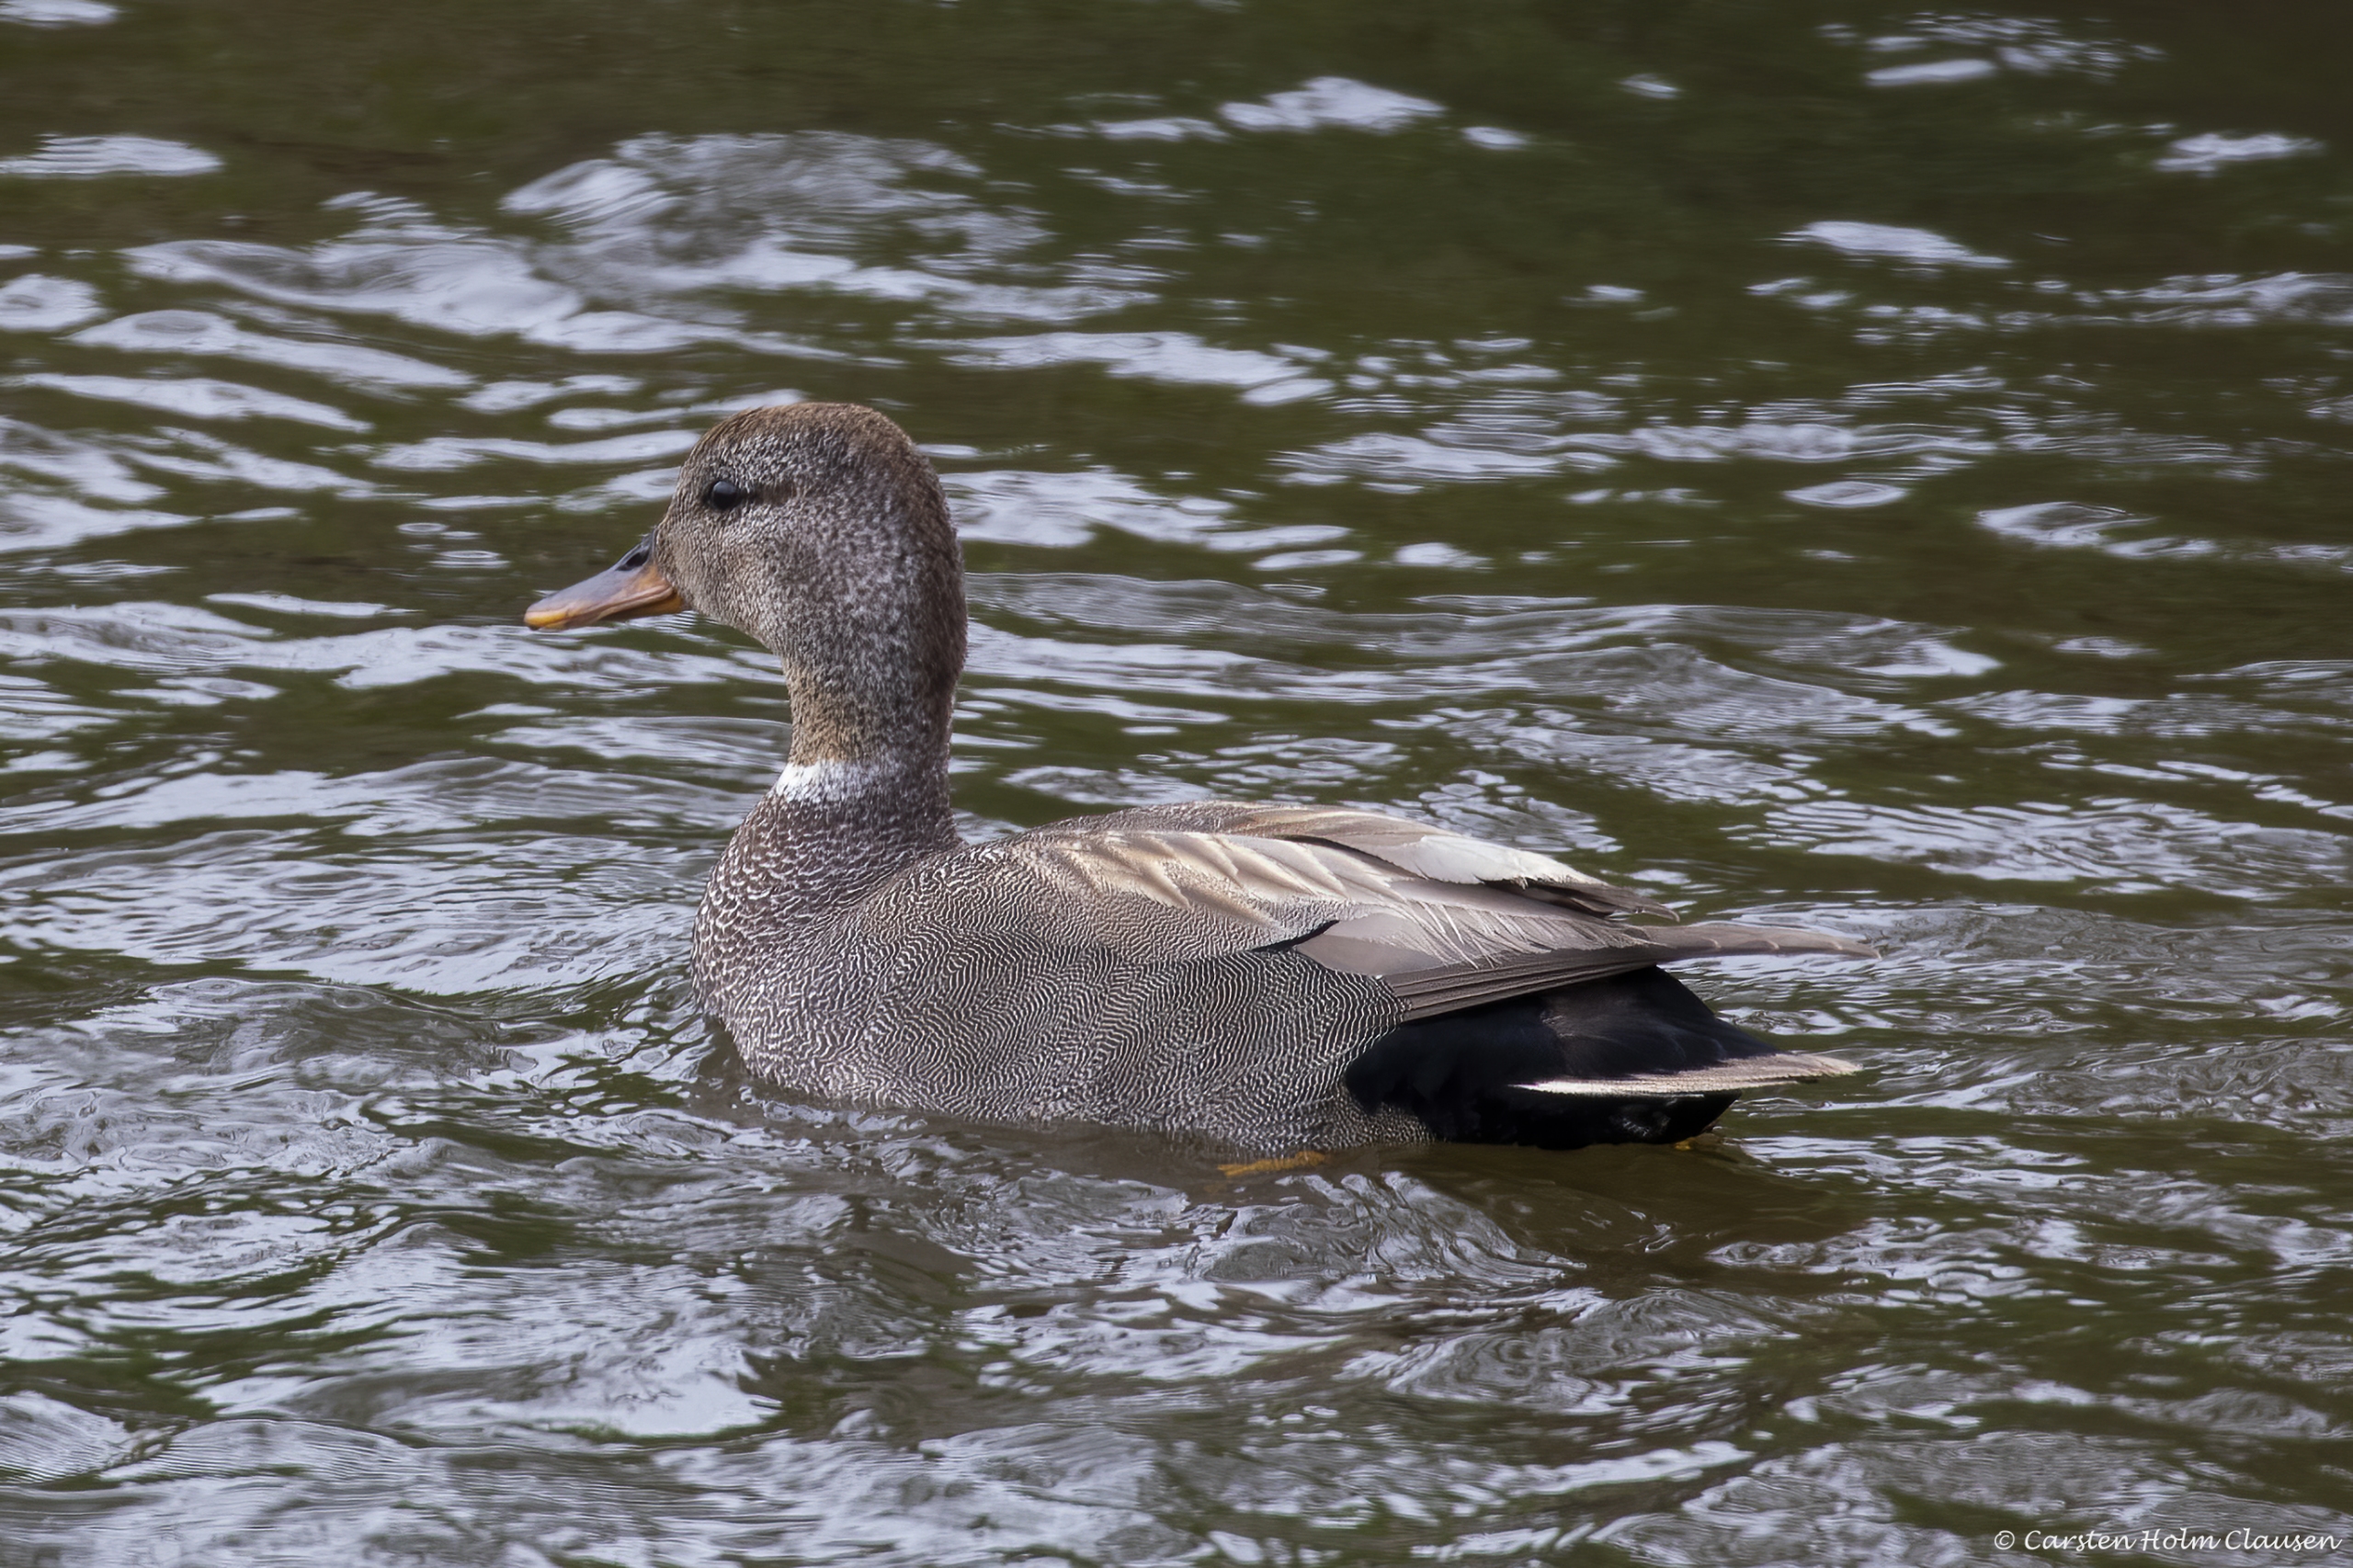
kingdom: Animalia
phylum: Chordata
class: Aves
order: Anseriformes
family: Anatidae
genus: Mareca
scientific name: Mareca strepera
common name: Knarand
